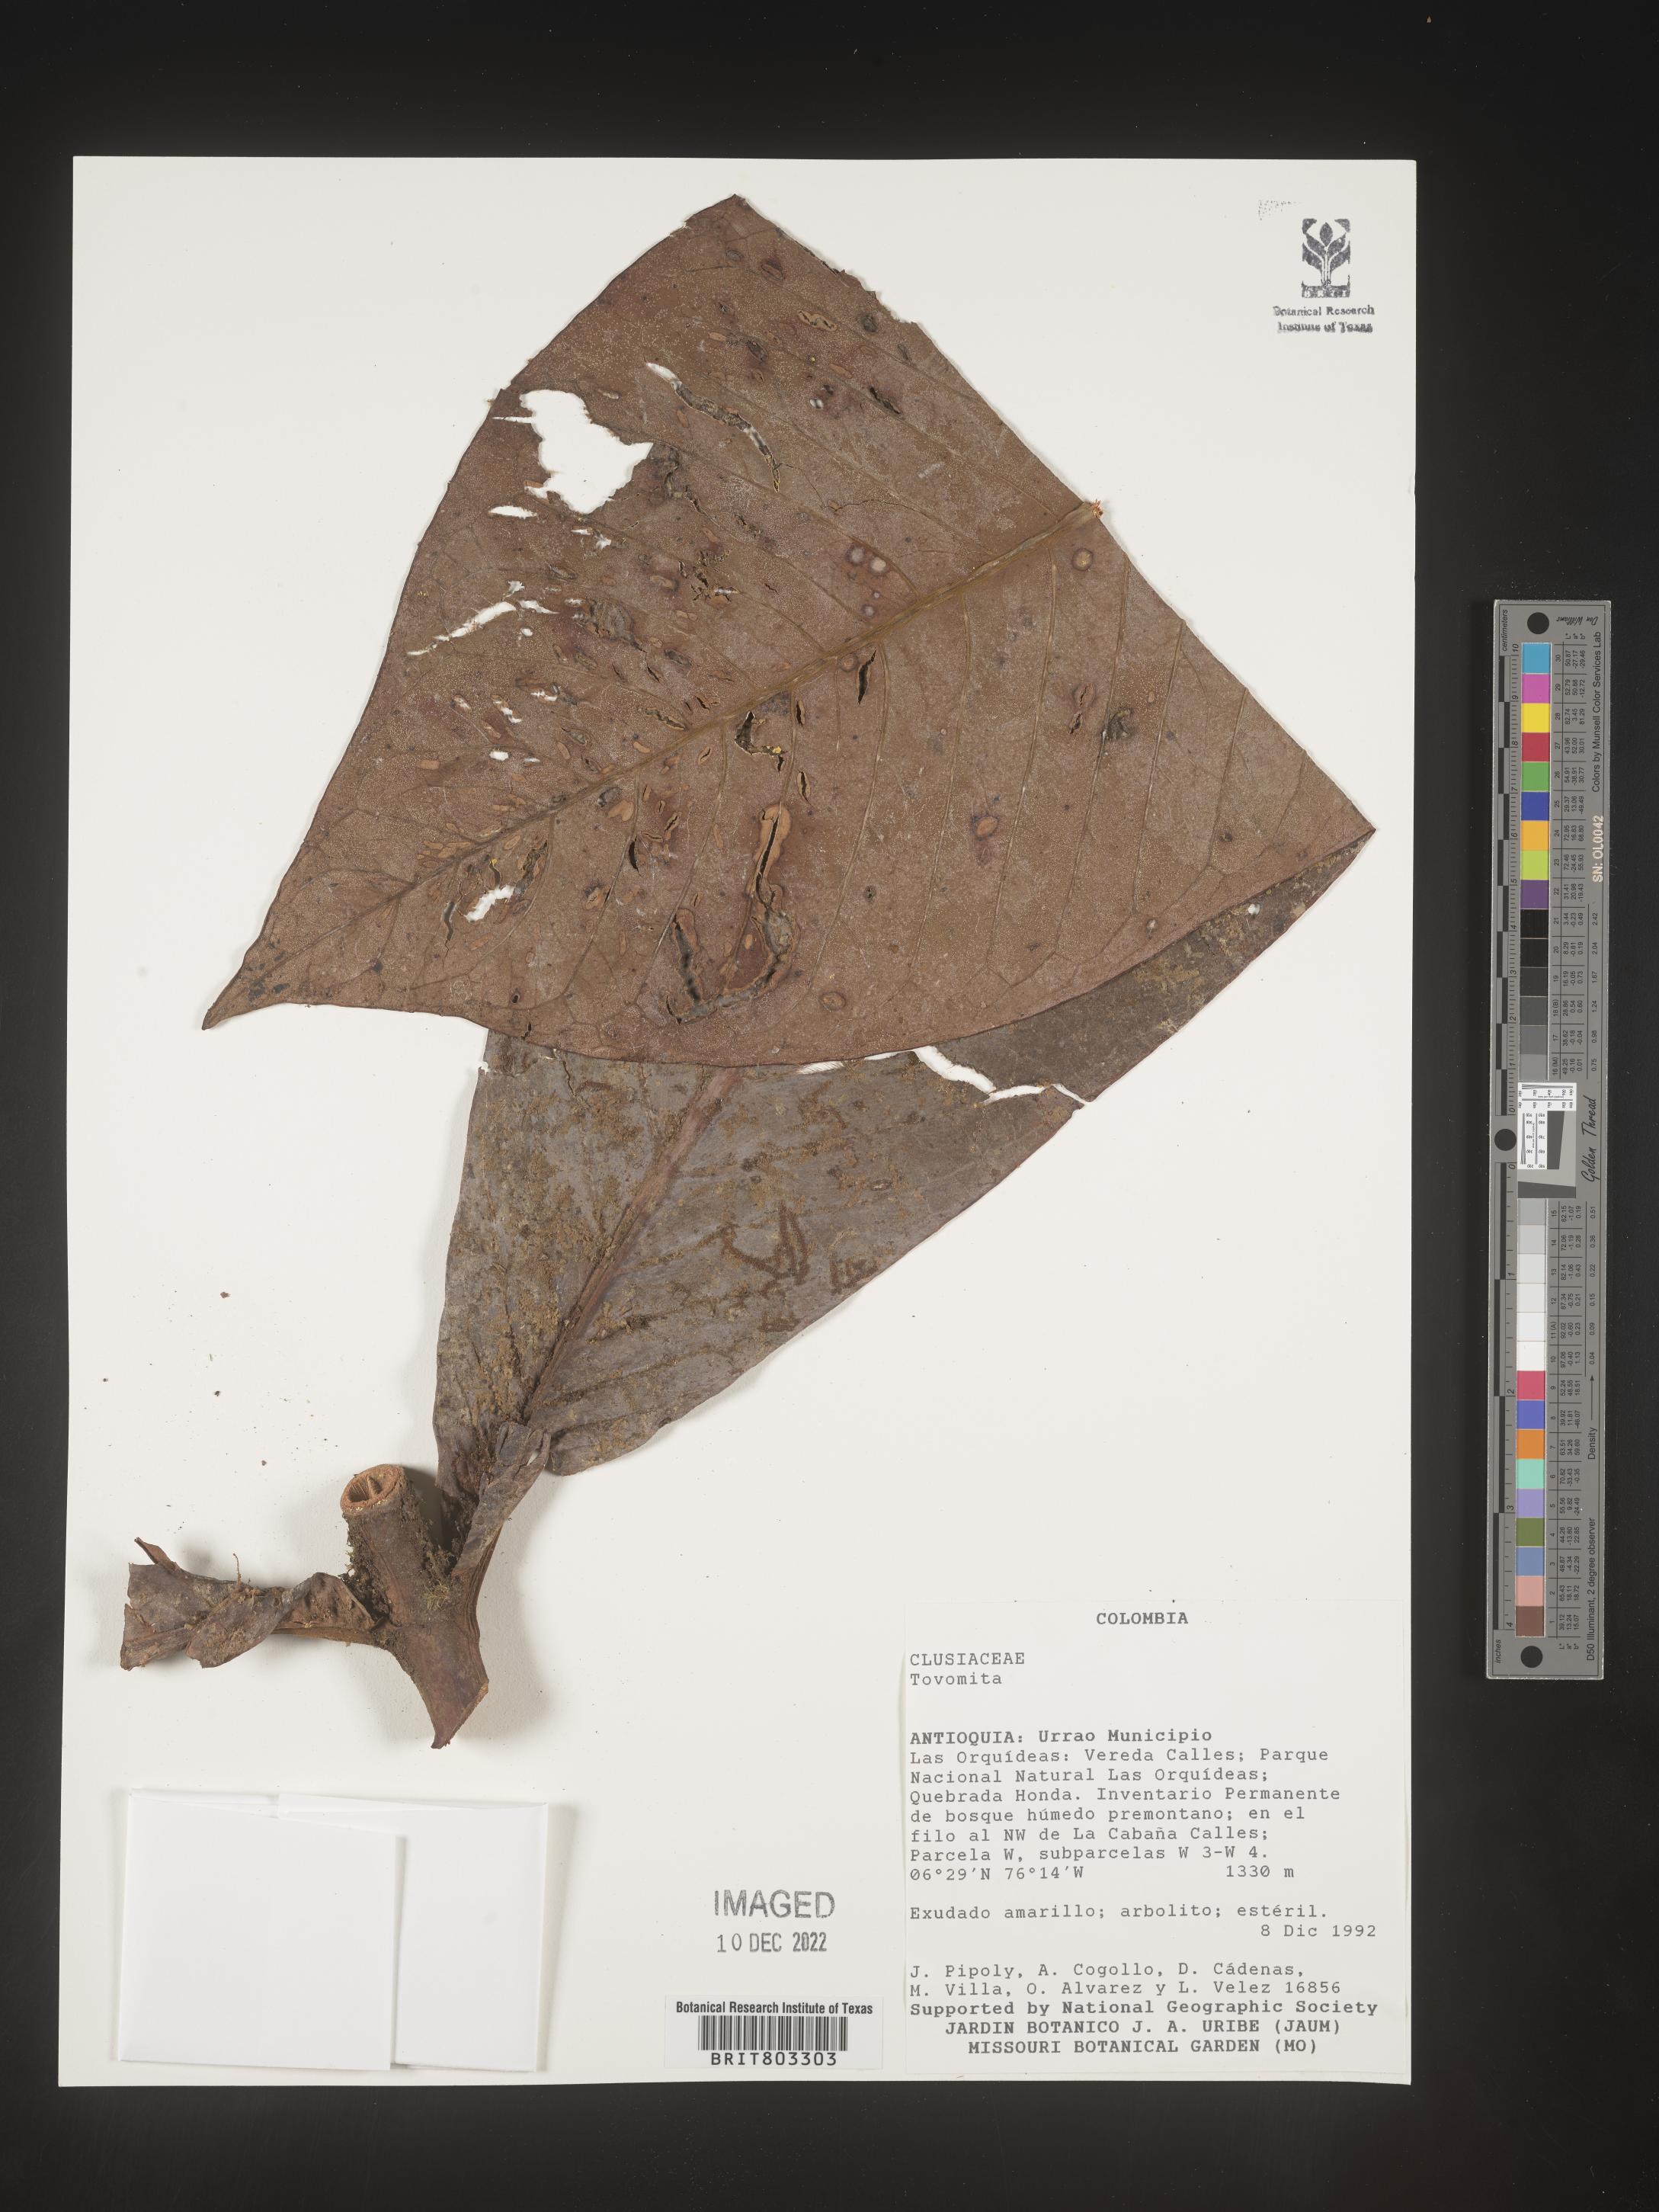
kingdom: Plantae
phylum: Tracheophyta
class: Magnoliopsida
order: Malpighiales
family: Clusiaceae
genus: Tovomita
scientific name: Tovomita
